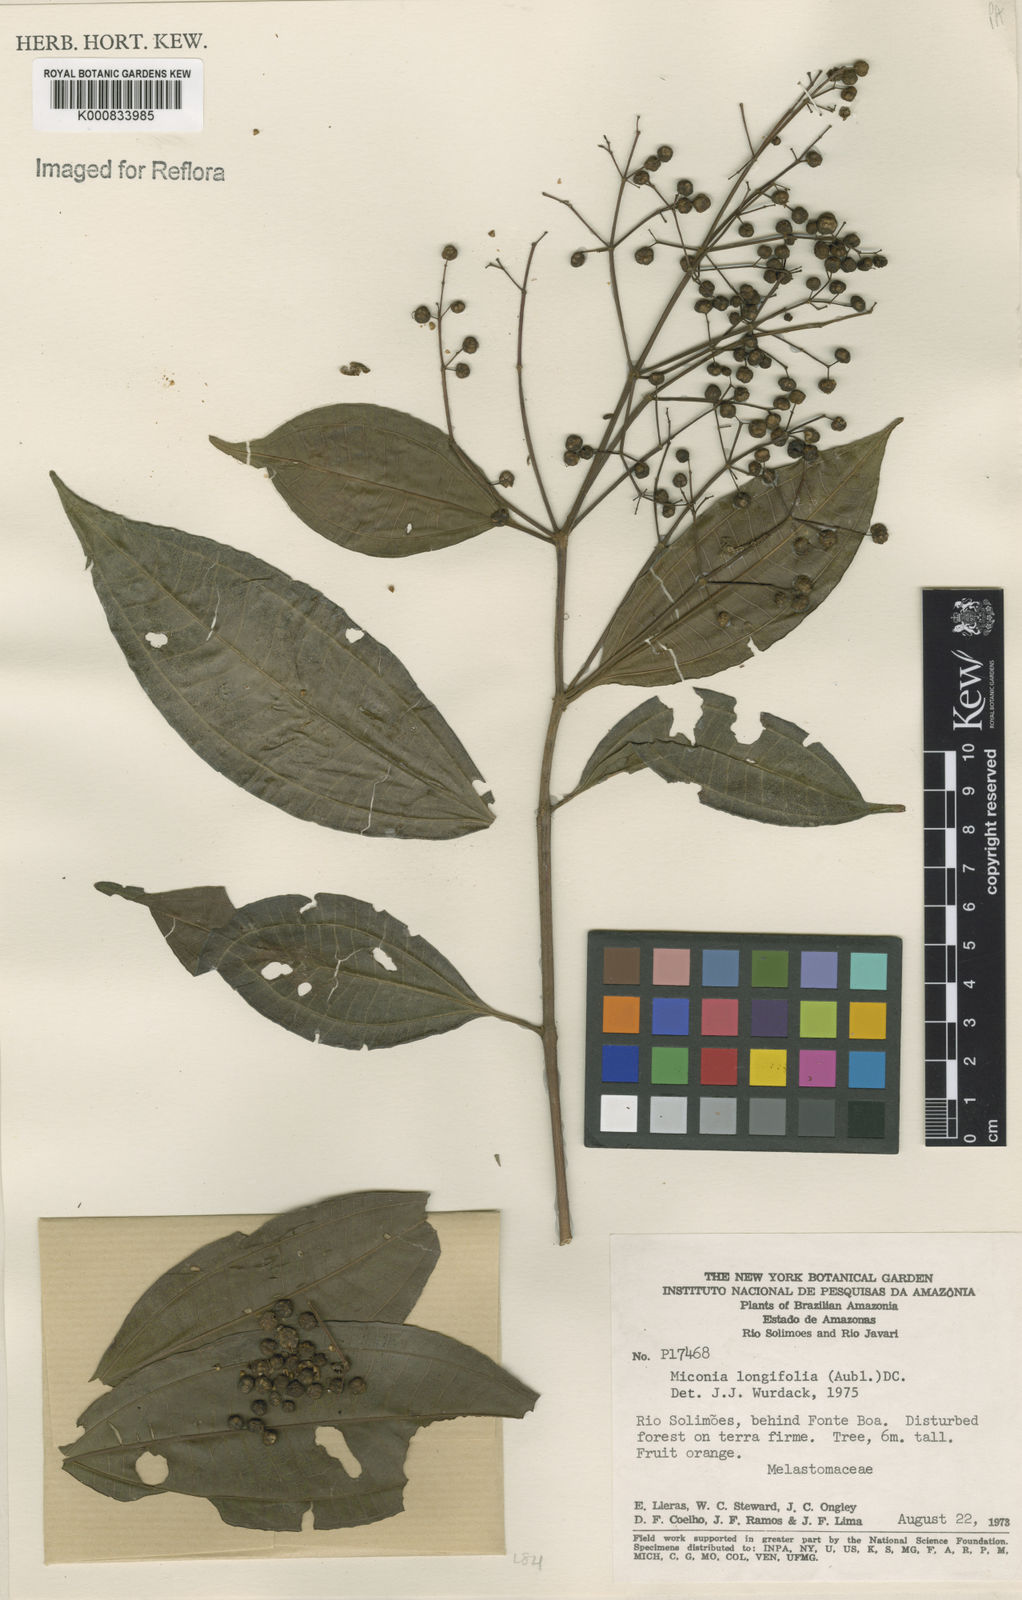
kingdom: Plantae
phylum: Tracheophyta
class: Magnoliopsida
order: Myrtales
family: Melastomataceae
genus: Miconia
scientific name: Miconia longifolia
